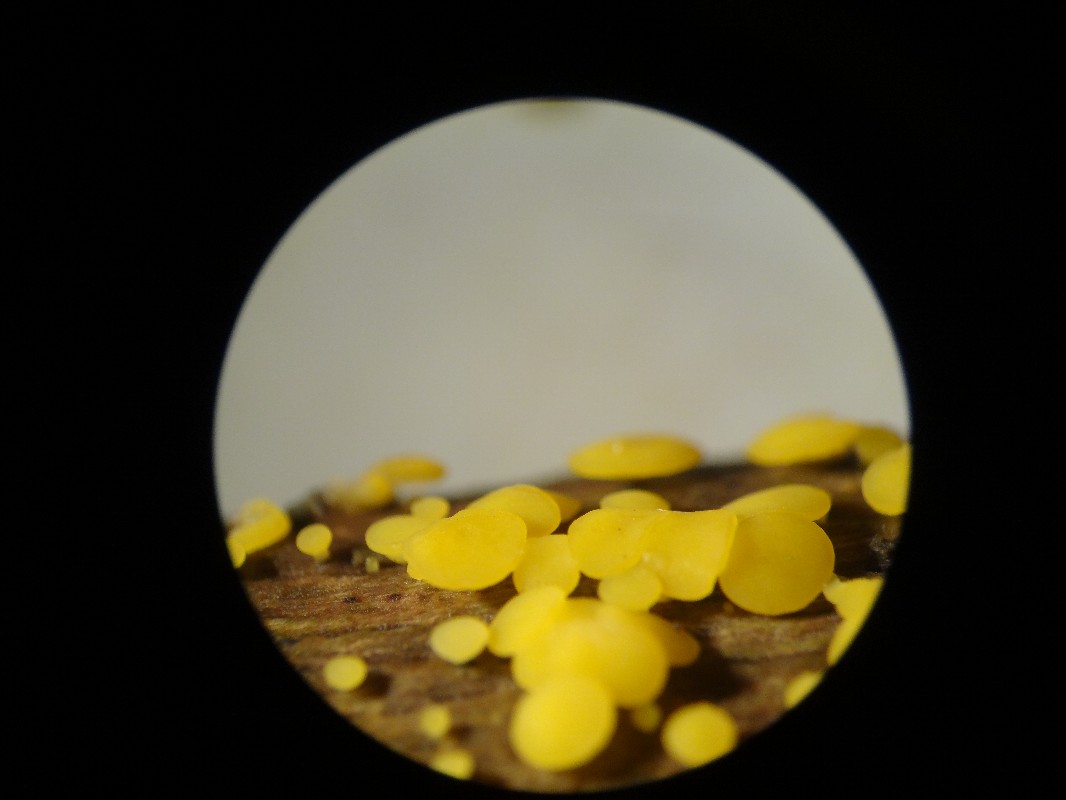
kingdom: Fungi
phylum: Ascomycota
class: Leotiomycetes
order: Helotiales
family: Pezizellaceae
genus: Calycina
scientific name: Calycina citrina
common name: almindelig gulskive
